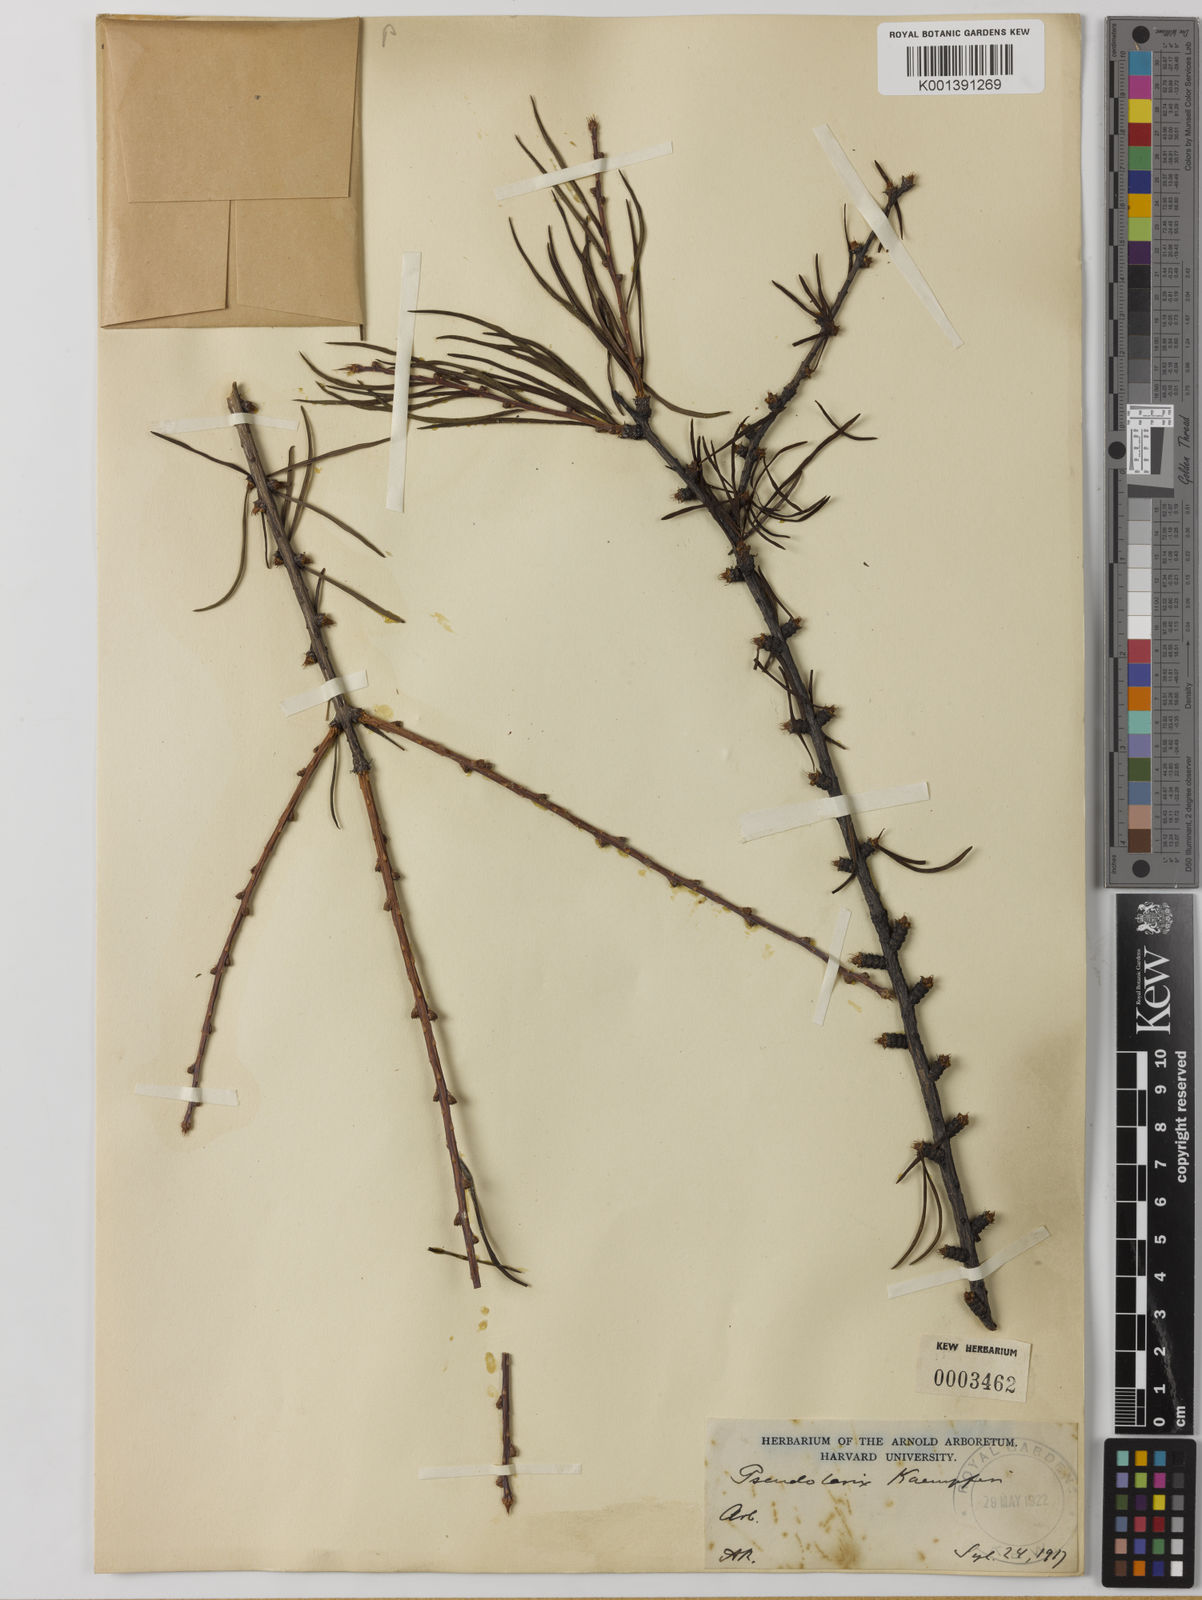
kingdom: Plantae
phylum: Tracheophyta
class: Pinopsida
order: Pinales
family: Pinaceae
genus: Pseudolarix
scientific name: Pseudolarix amabilis
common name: Chinese golden larch
